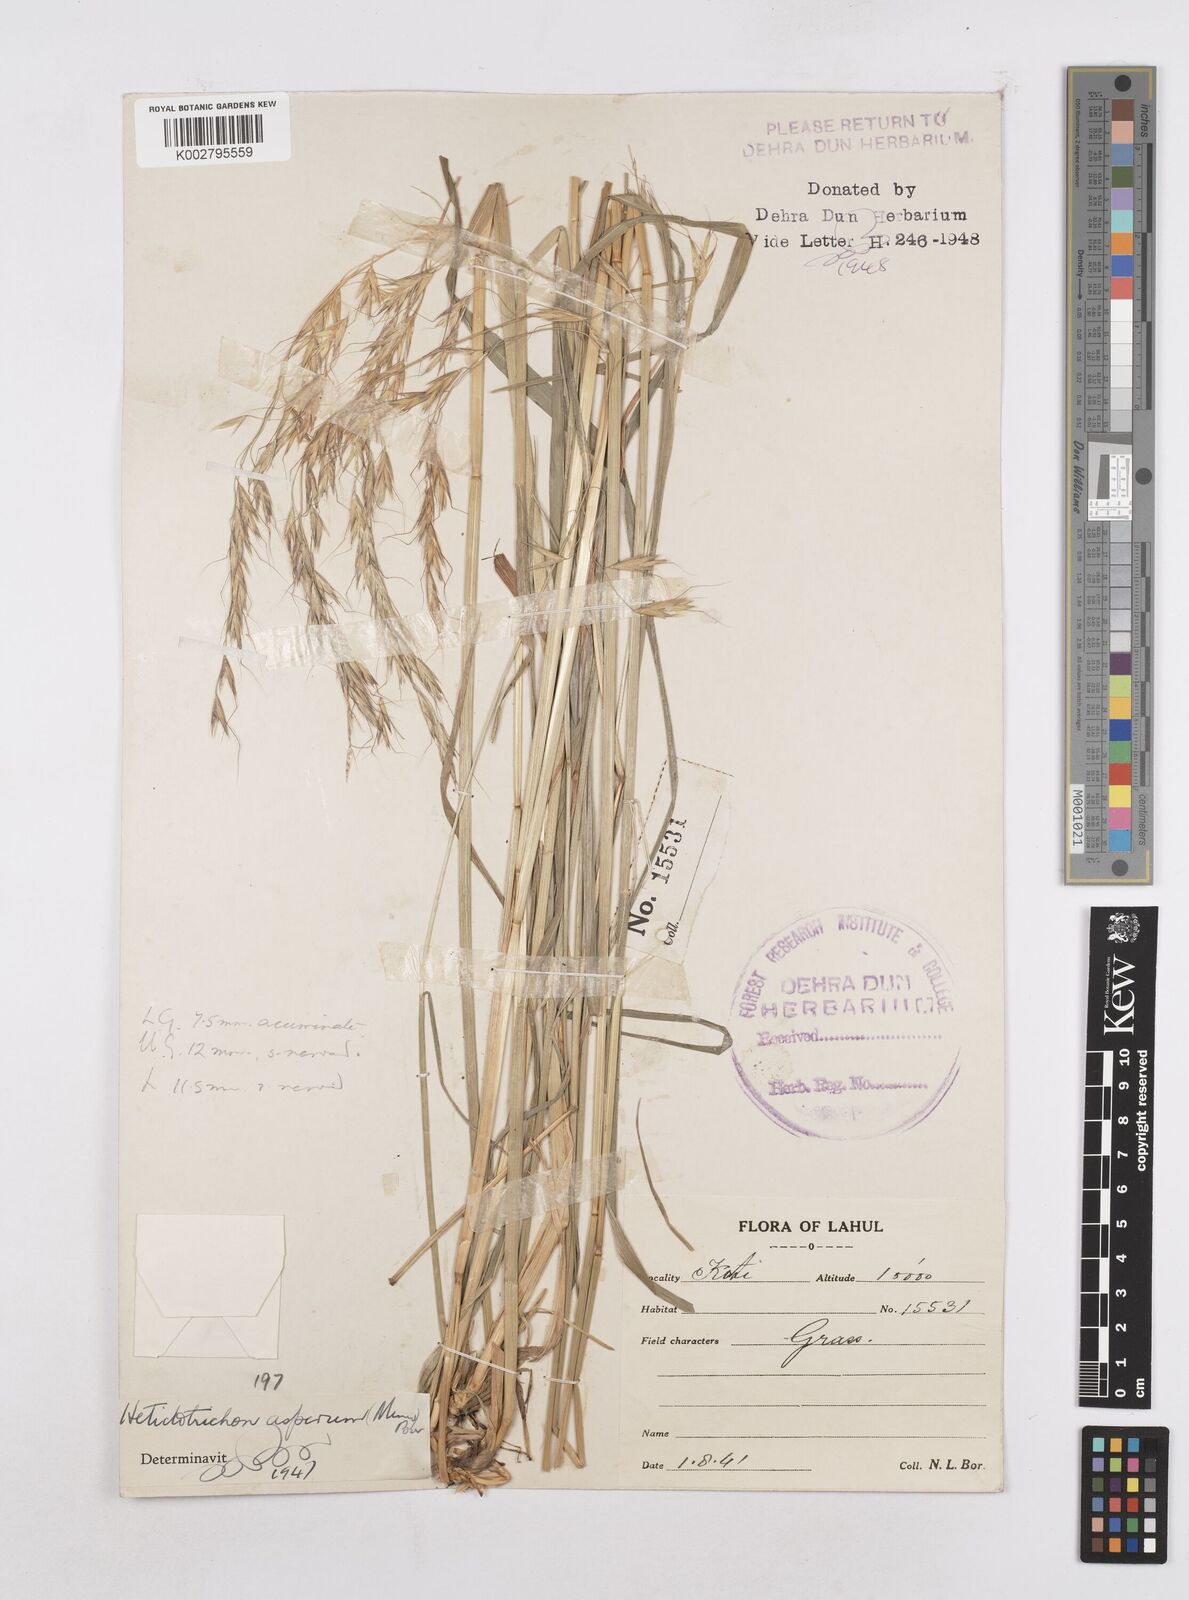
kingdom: Plantae
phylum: Tracheophyta
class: Liliopsida
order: Poales
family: Poaceae
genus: Trisetopsis
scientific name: Trisetopsis junghuhnii
